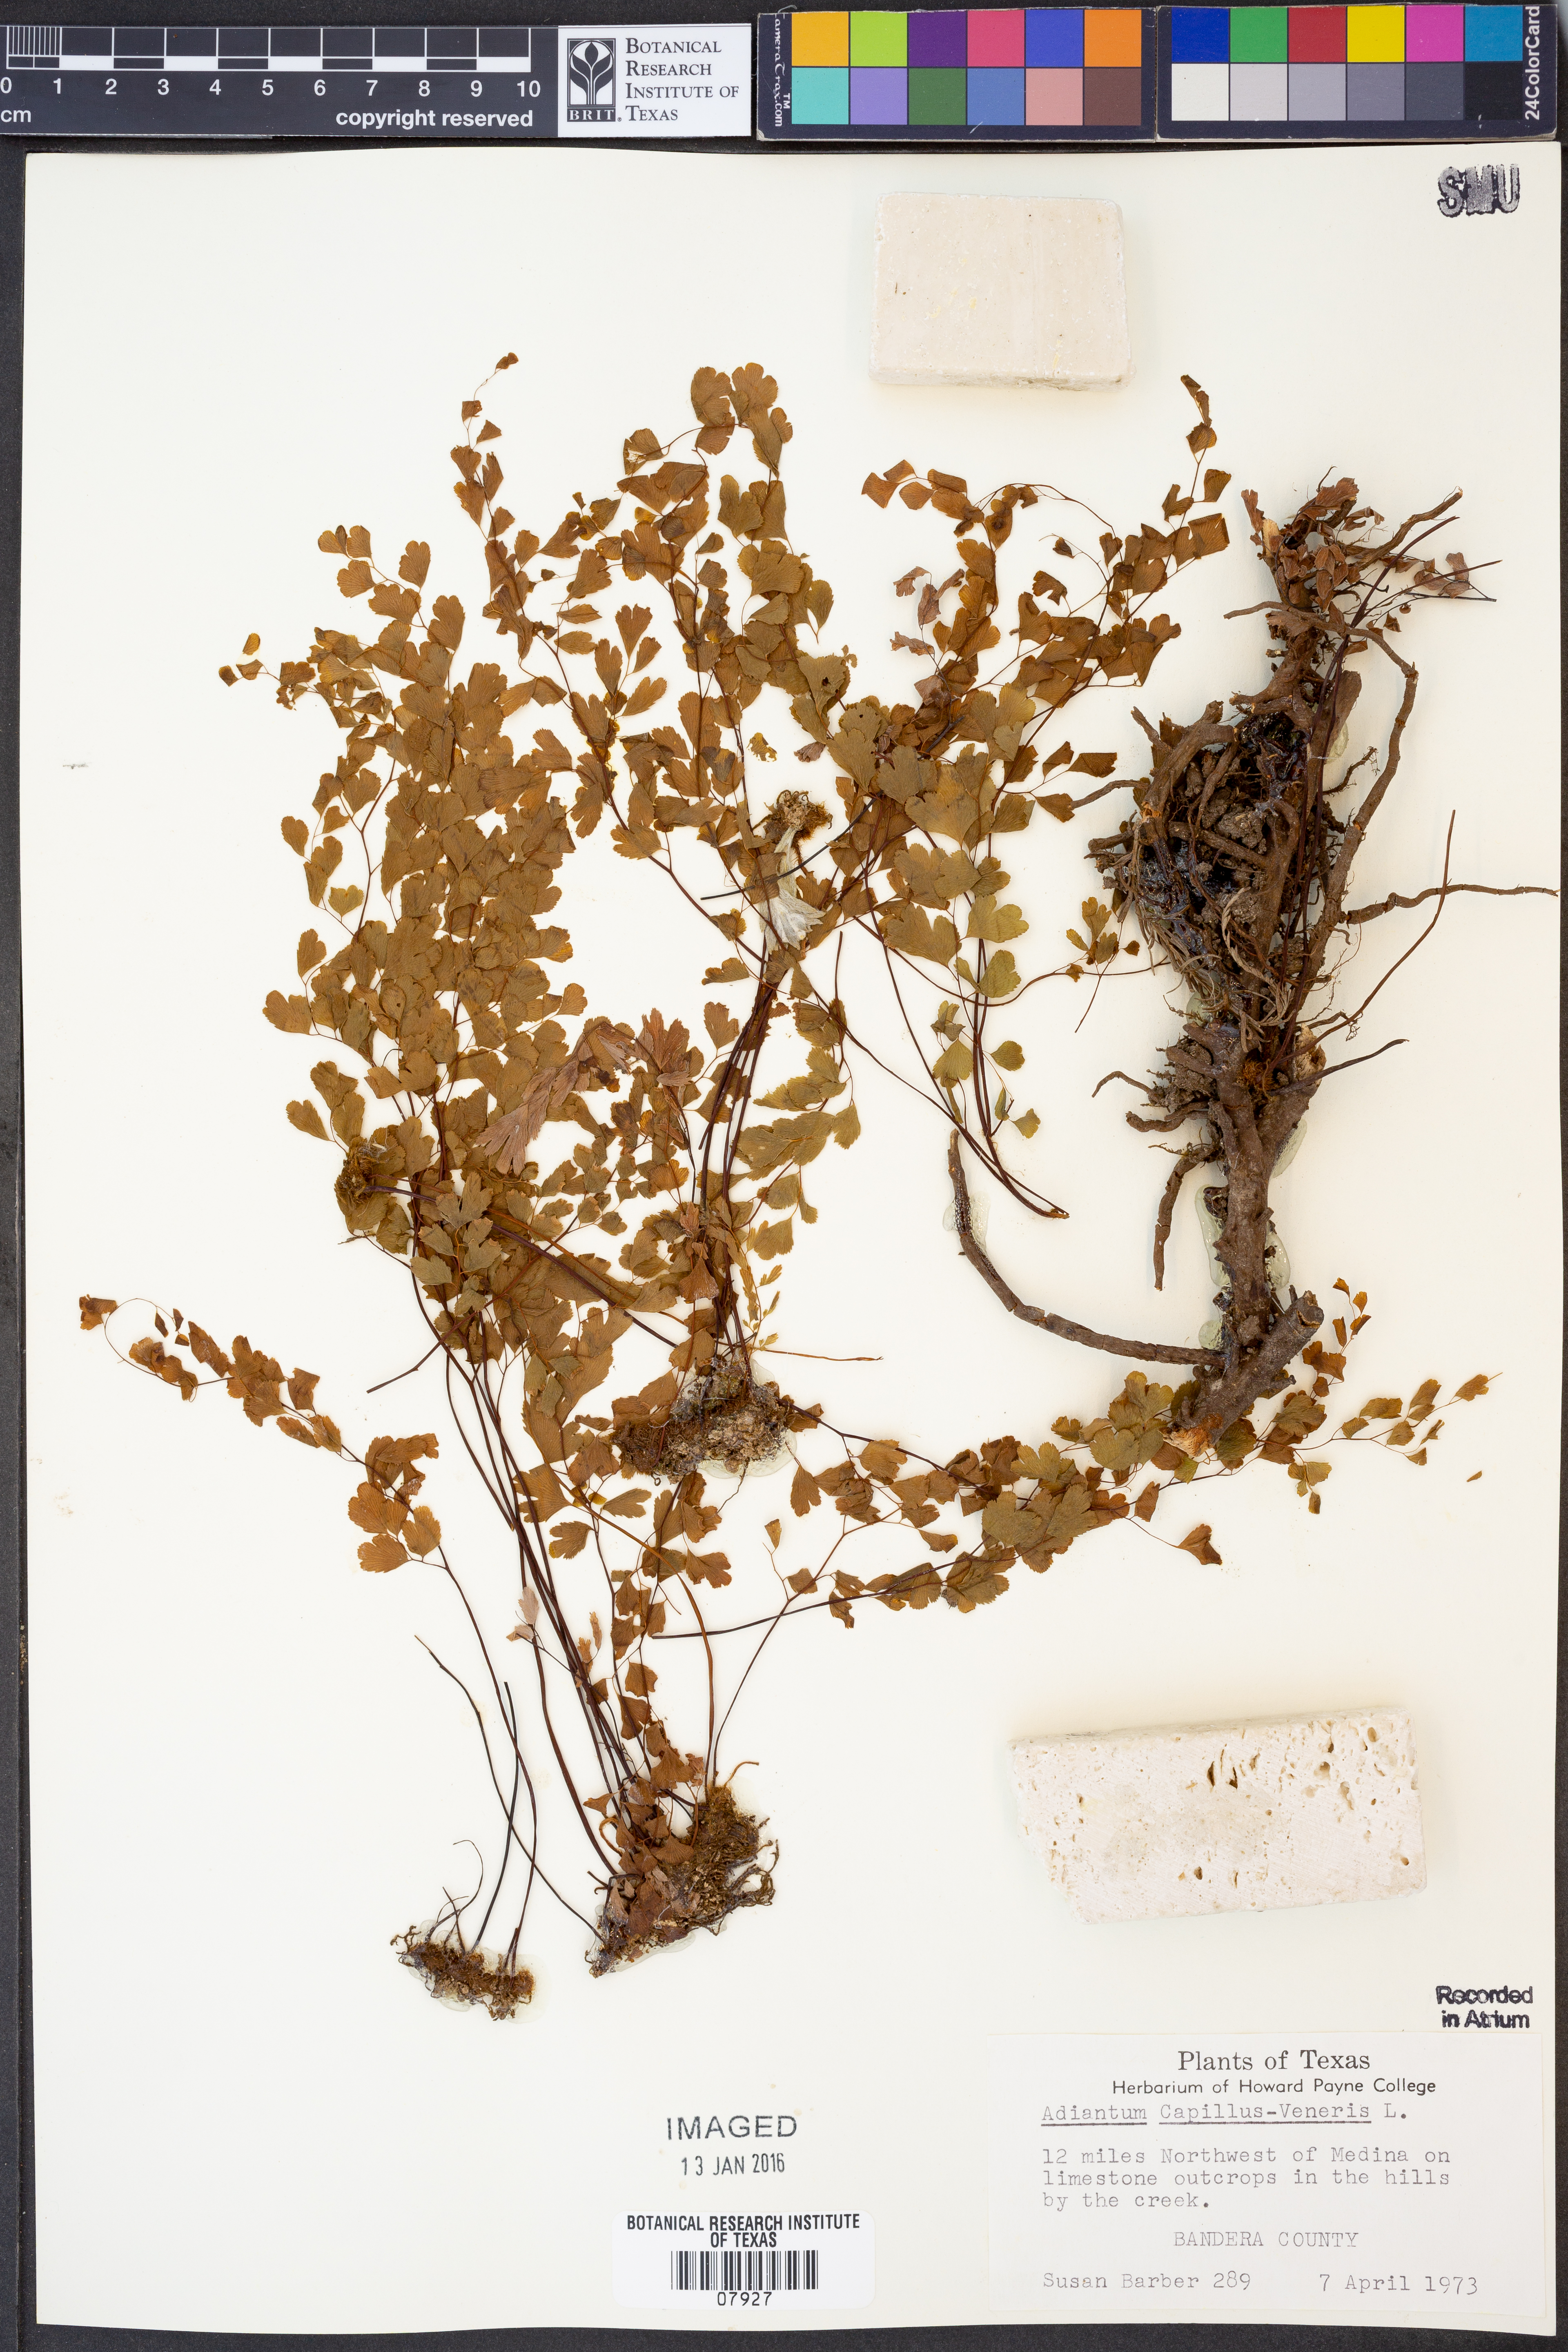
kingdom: Plantae
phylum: Tracheophyta
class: Polypodiopsida
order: Polypodiales
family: Pteridaceae
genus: Adiantum
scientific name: Adiantum capillus-veneris
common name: Maidenhair fern
